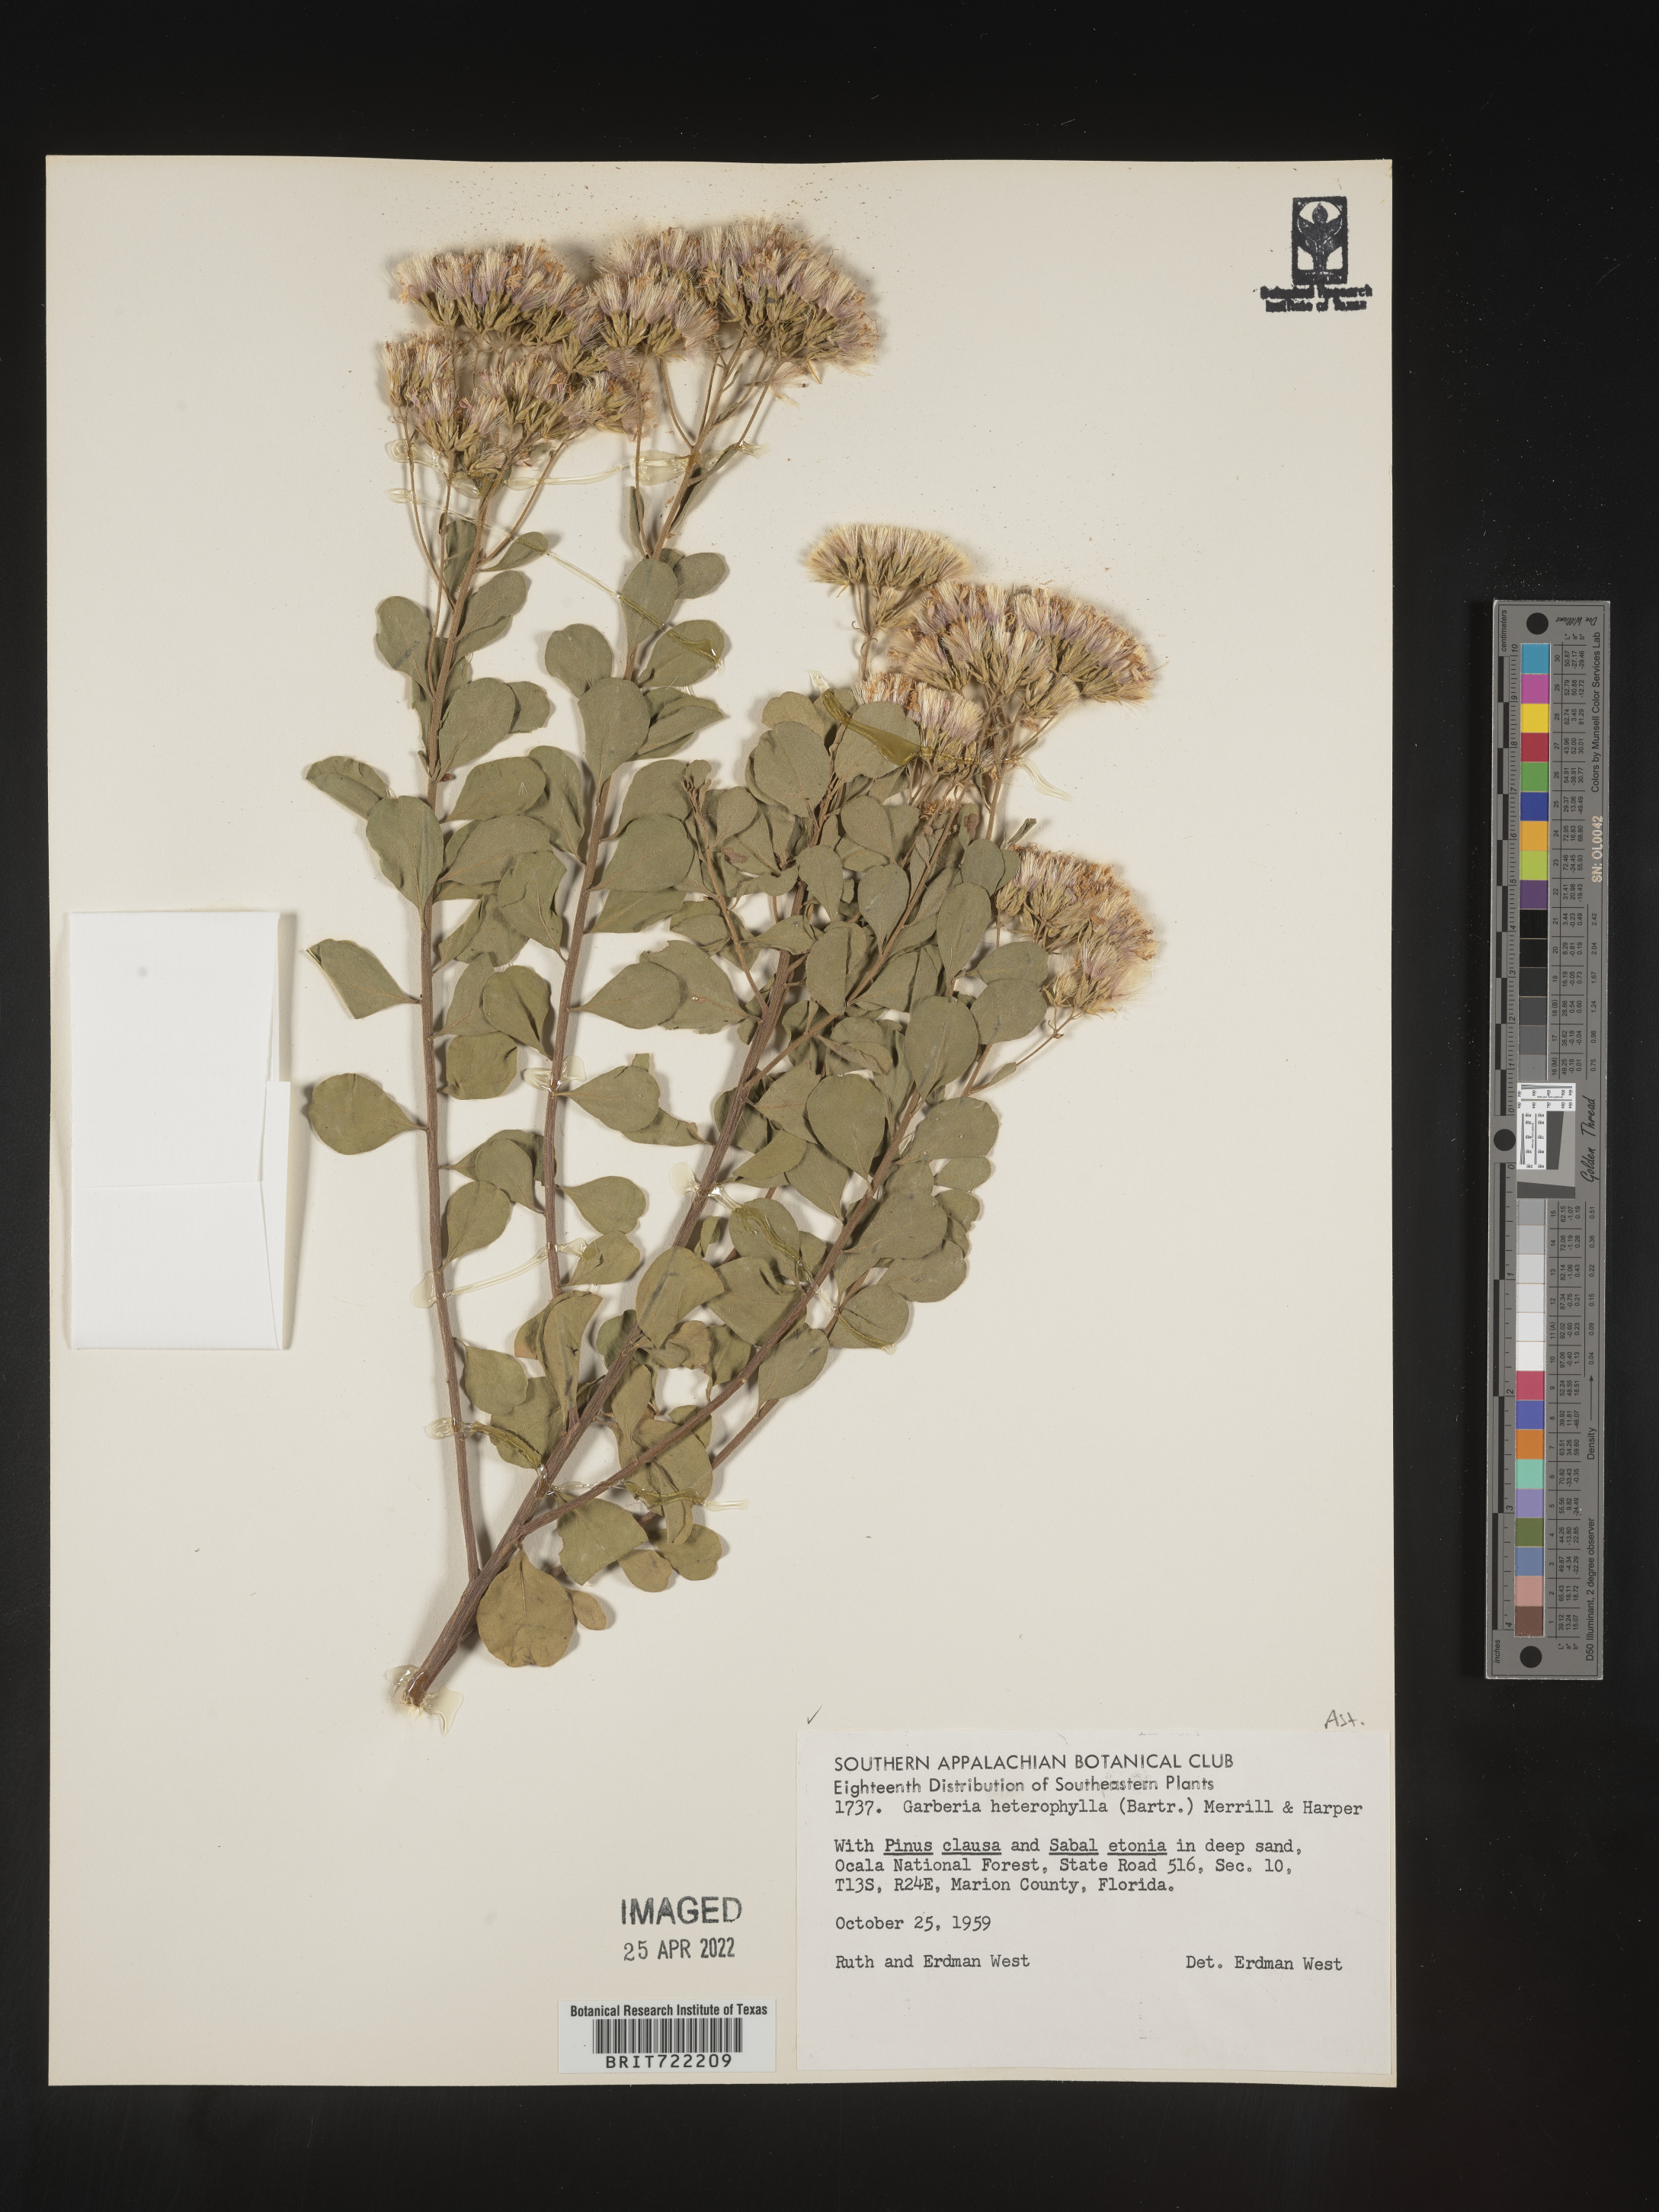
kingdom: Plantae
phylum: Tracheophyta
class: Magnoliopsida
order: Asterales
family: Asteraceae
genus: Garberia
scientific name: Garberia
